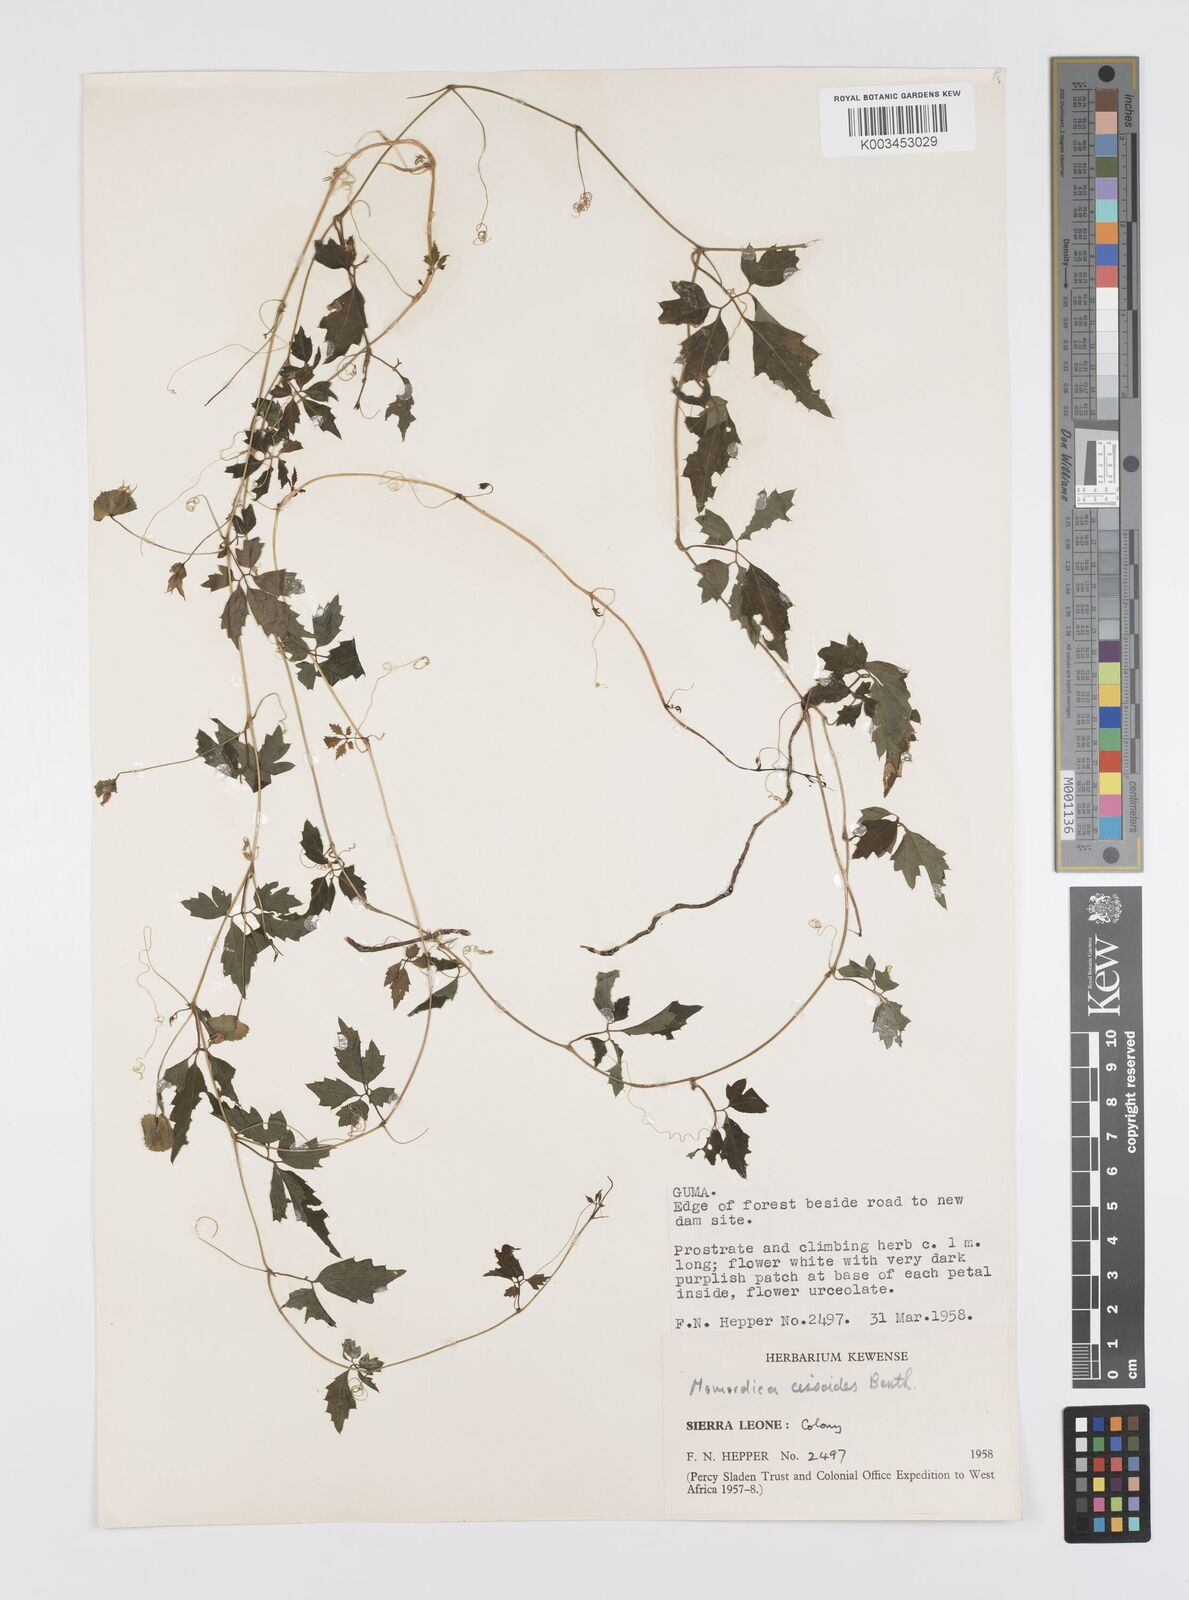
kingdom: Plantae
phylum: Tracheophyta
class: Magnoliopsida
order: Cucurbitales
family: Cucurbitaceae
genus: Momordica
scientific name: Momordica cissoides
